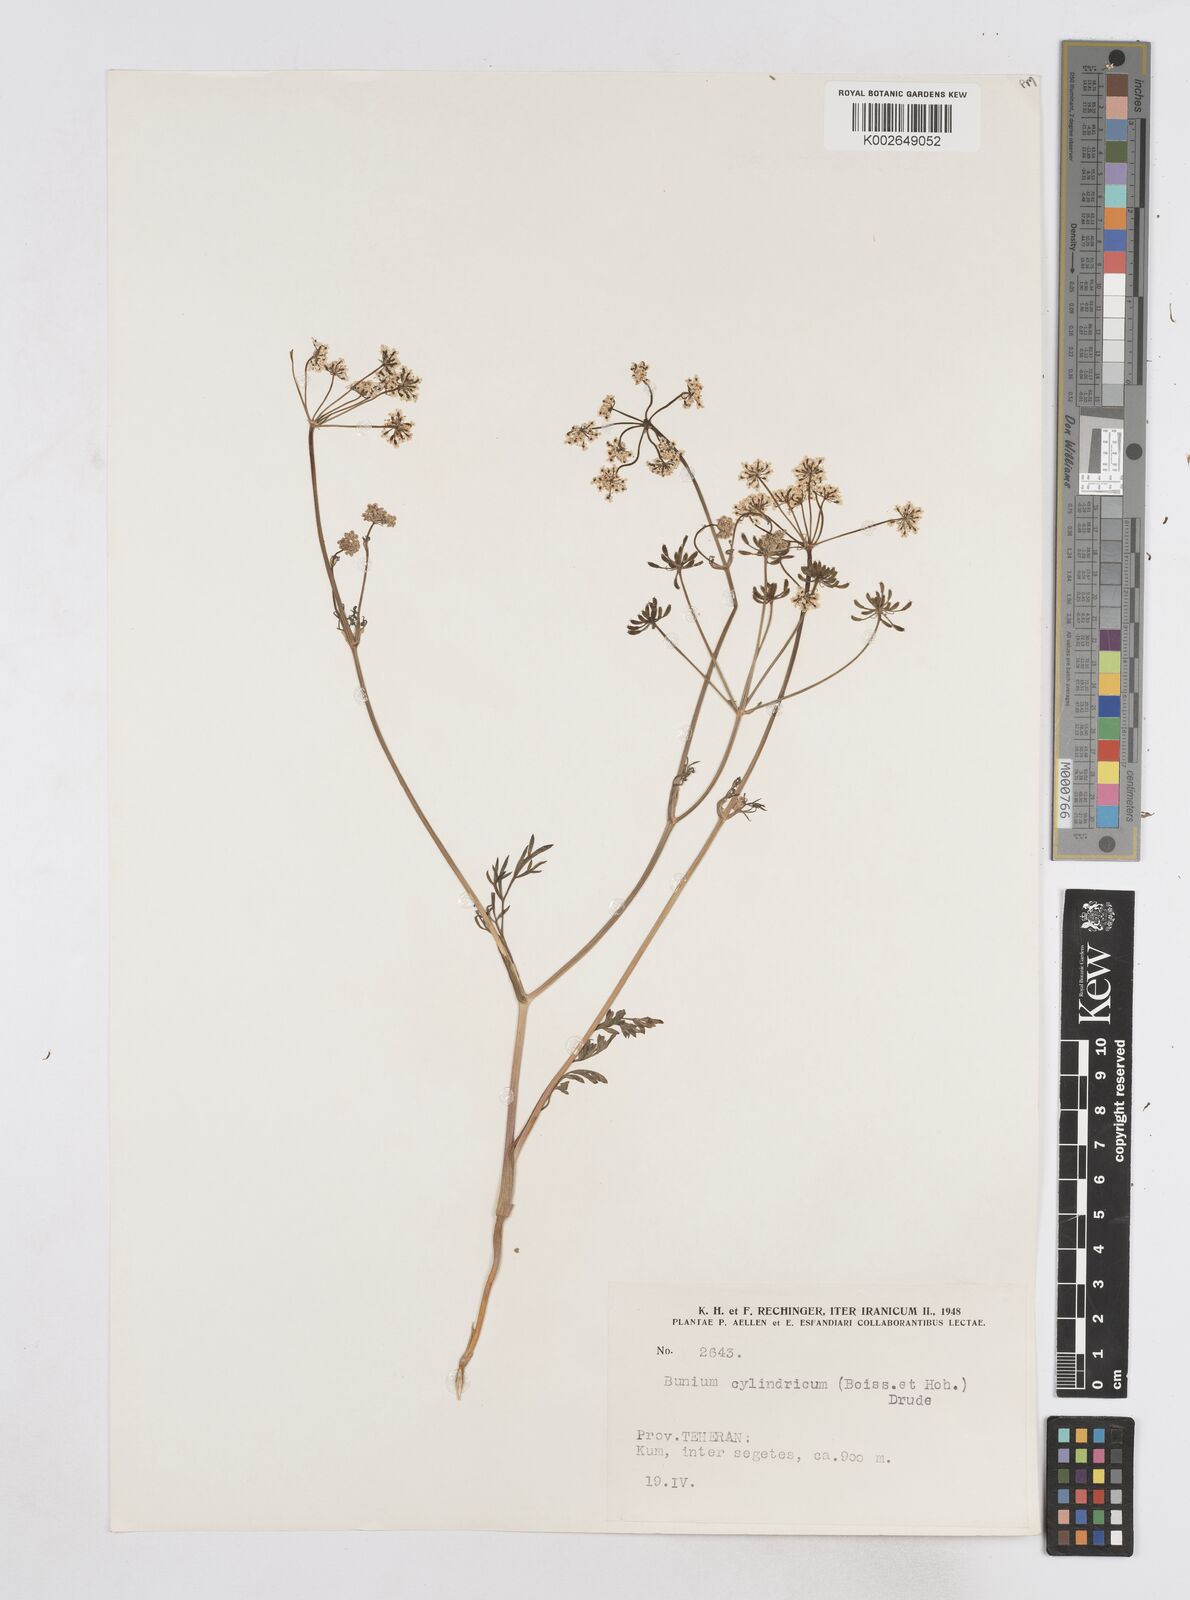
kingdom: Plantae
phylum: Tracheophyta
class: Magnoliopsida
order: Apiales
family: Apiaceae
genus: Elwendia
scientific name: Elwendia cylindrica
